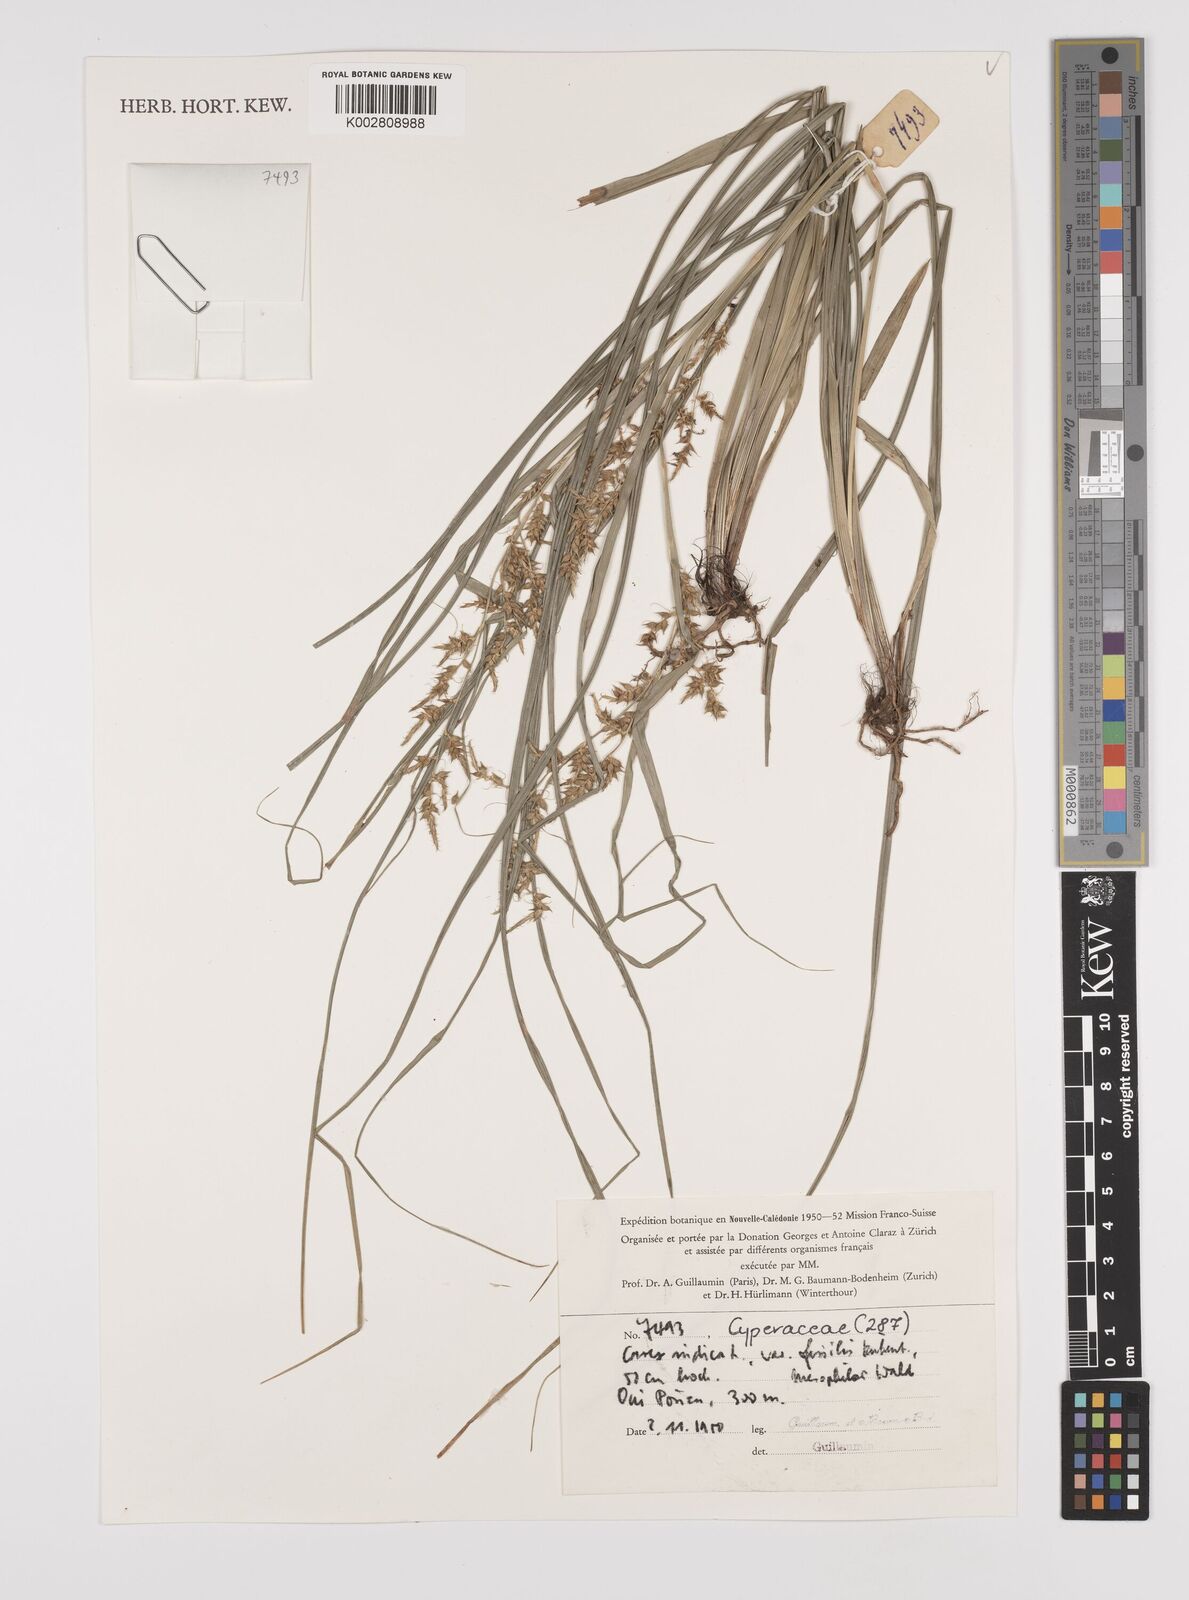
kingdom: Plantae
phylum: Tracheophyta
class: Liliopsida
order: Poales
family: Cyperaceae
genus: Carex
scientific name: Carex indica
